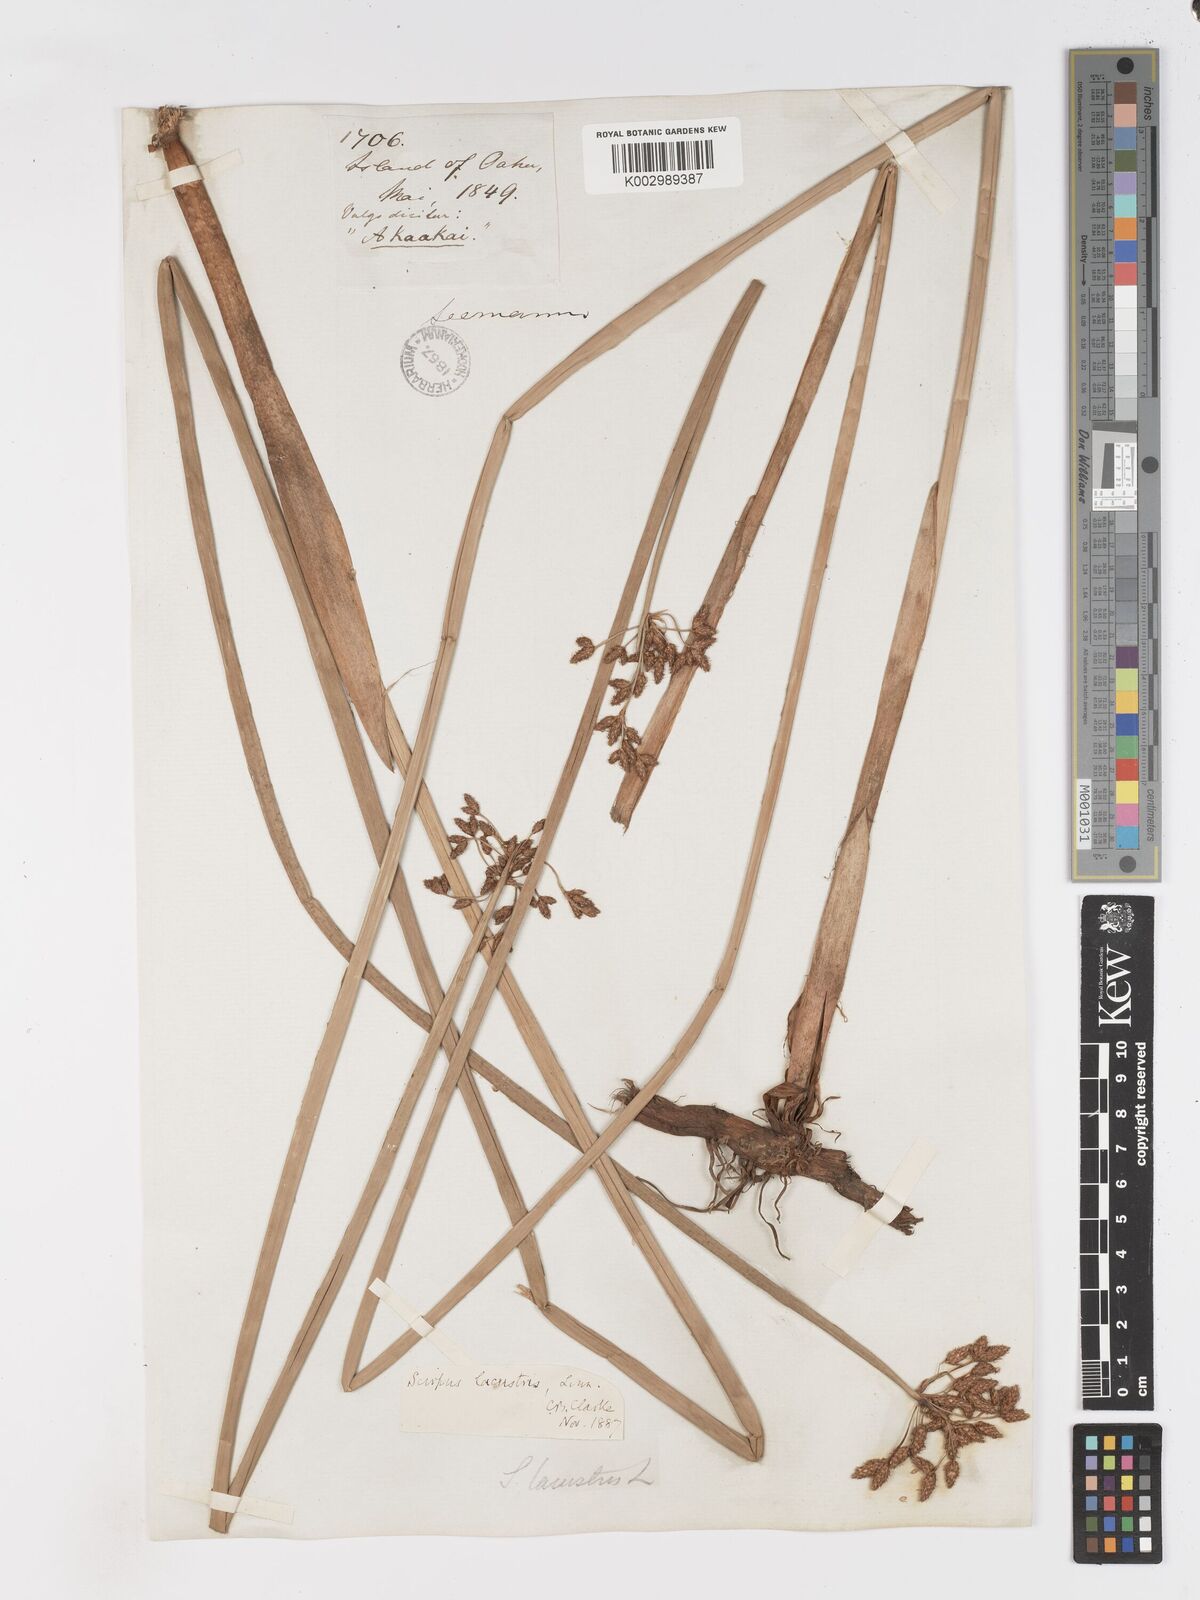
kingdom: Plantae
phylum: Tracheophyta
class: Liliopsida
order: Poales
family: Cyperaceae
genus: Schoenoplectus
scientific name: Schoenoplectus californicus
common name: California bulrush
